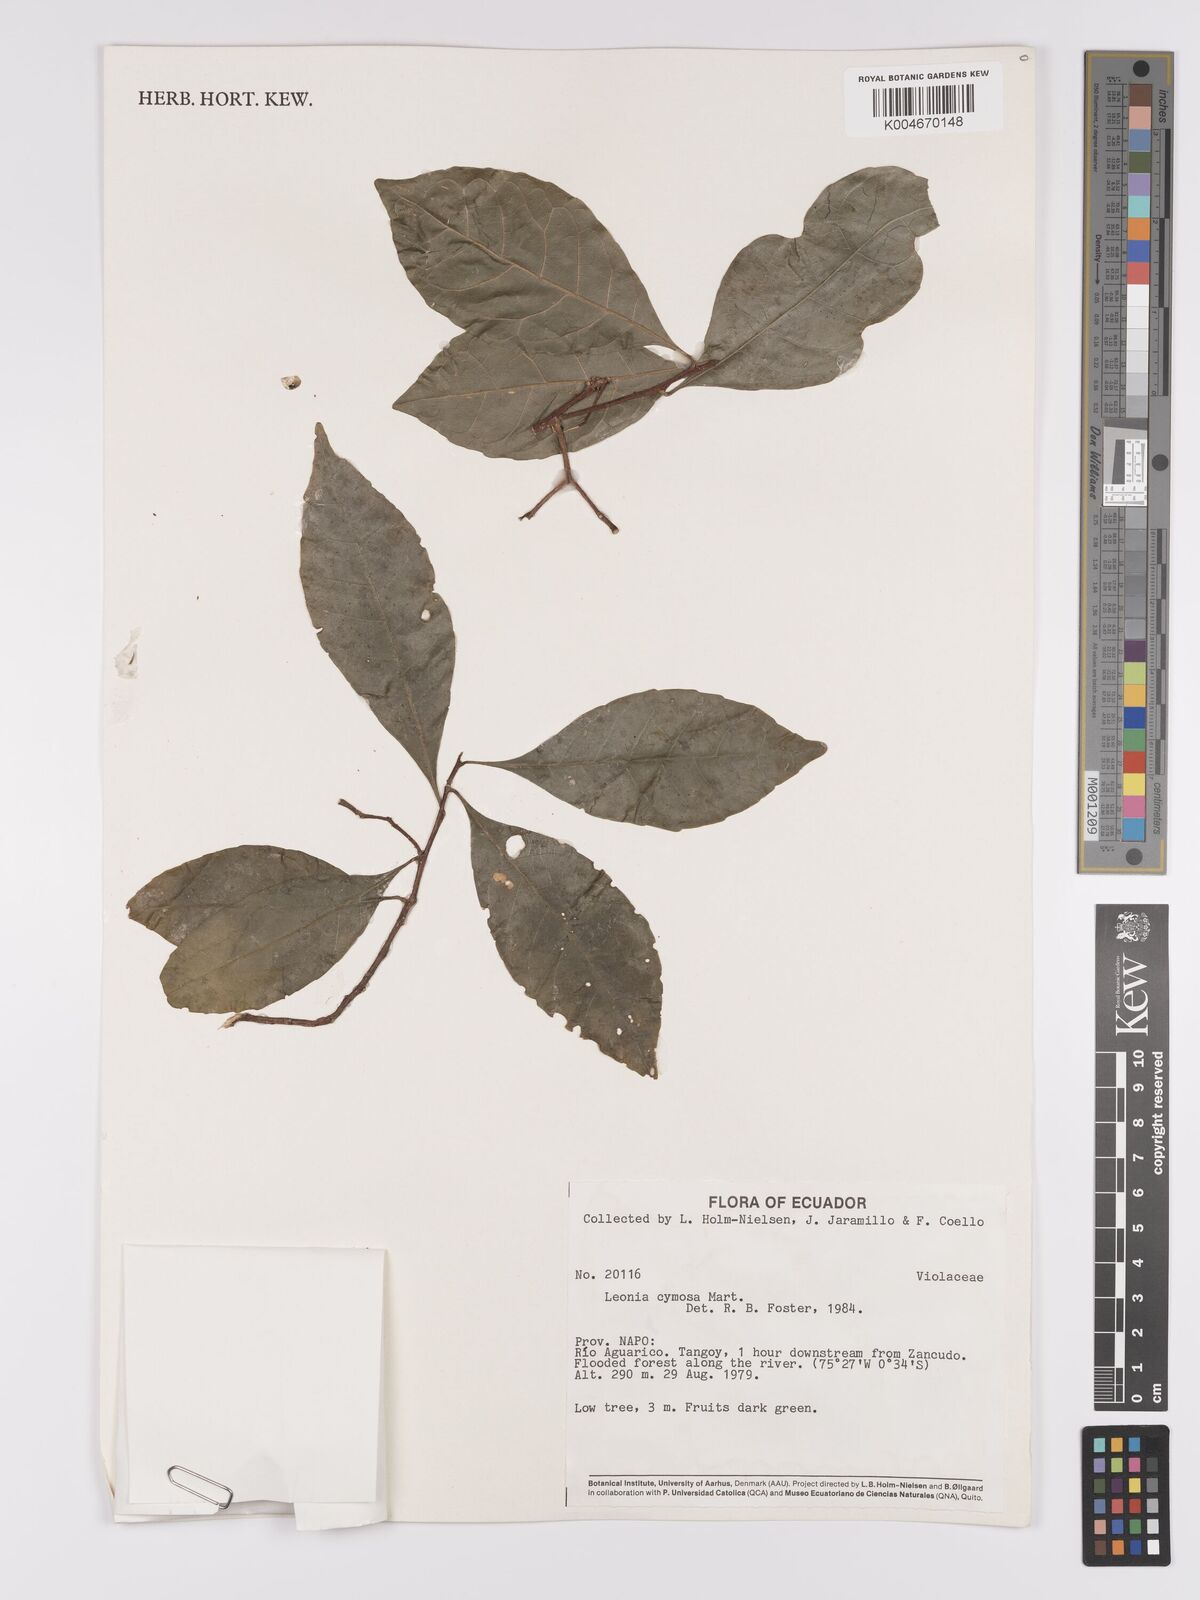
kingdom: Plantae
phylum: Tracheophyta
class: Magnoliopsida
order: Malpighiales
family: Violaceae
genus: Leonia
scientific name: Leonia cymosa
